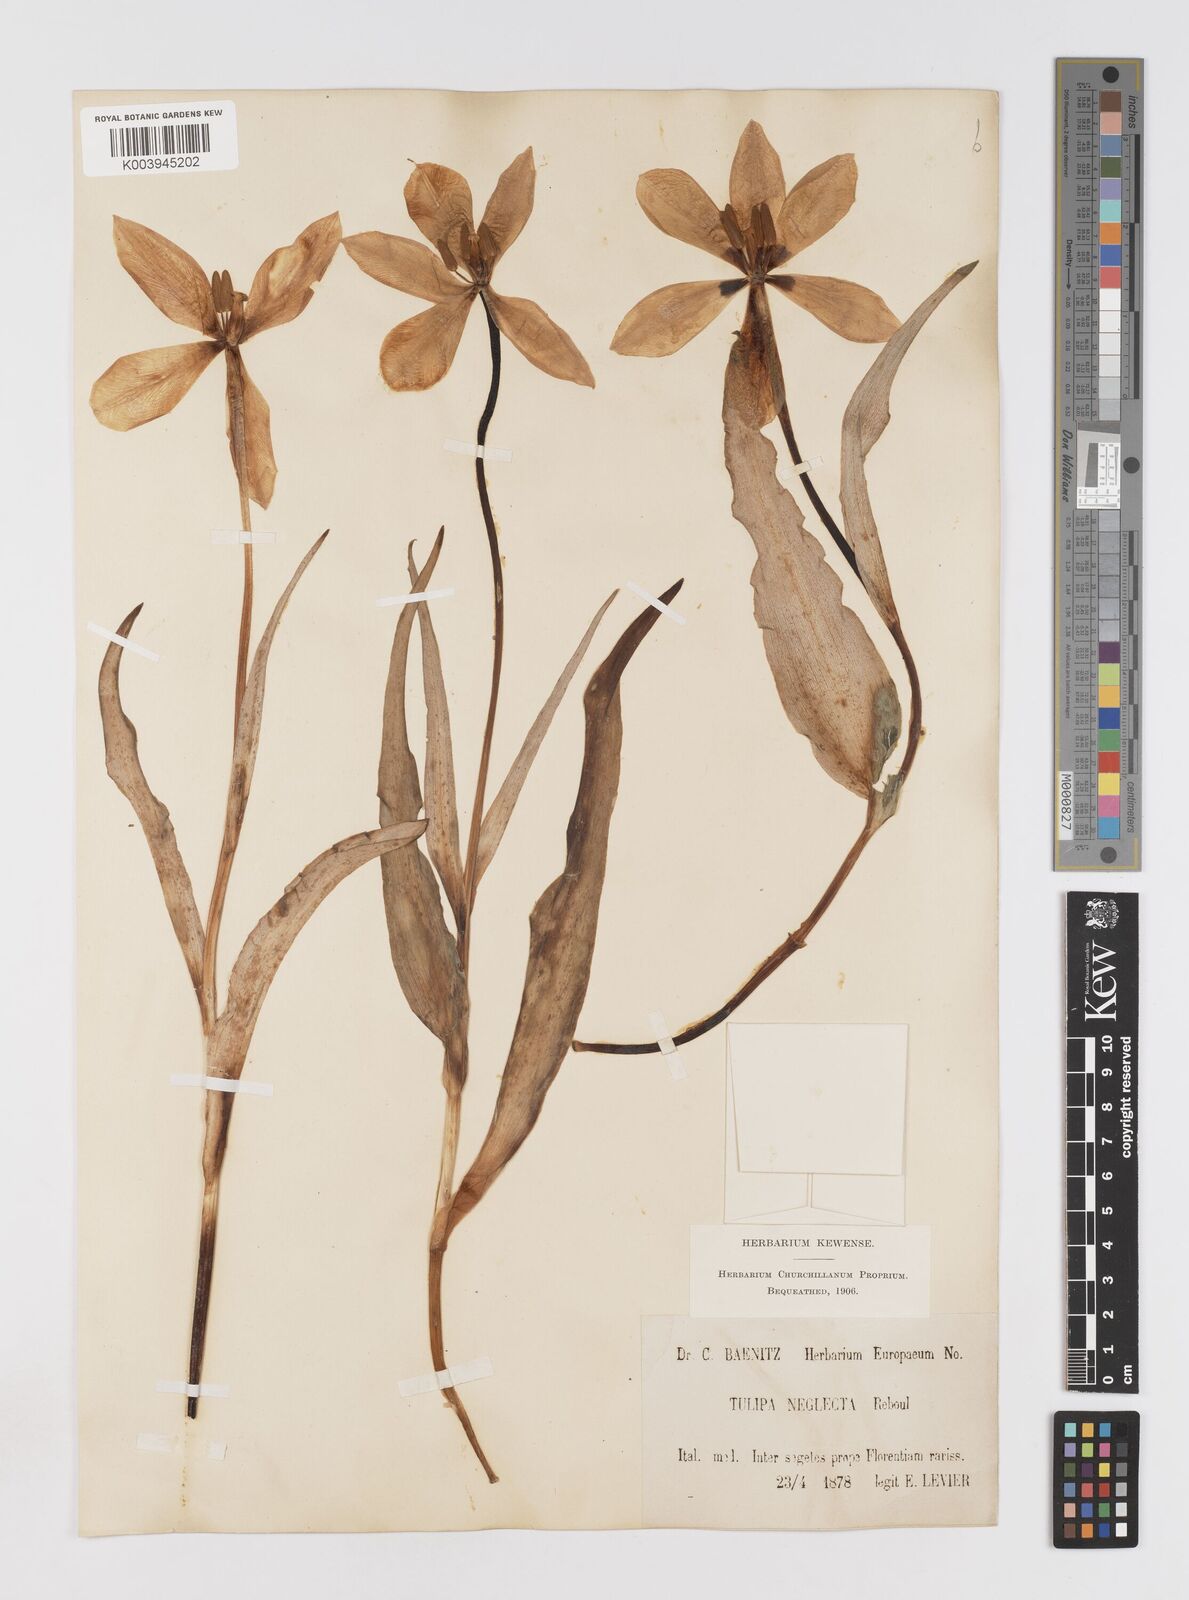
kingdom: Plantae
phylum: Tracheophyta
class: Liliopsida
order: Liliales
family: Liliaceae
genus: Tulipa
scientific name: Tulipa
